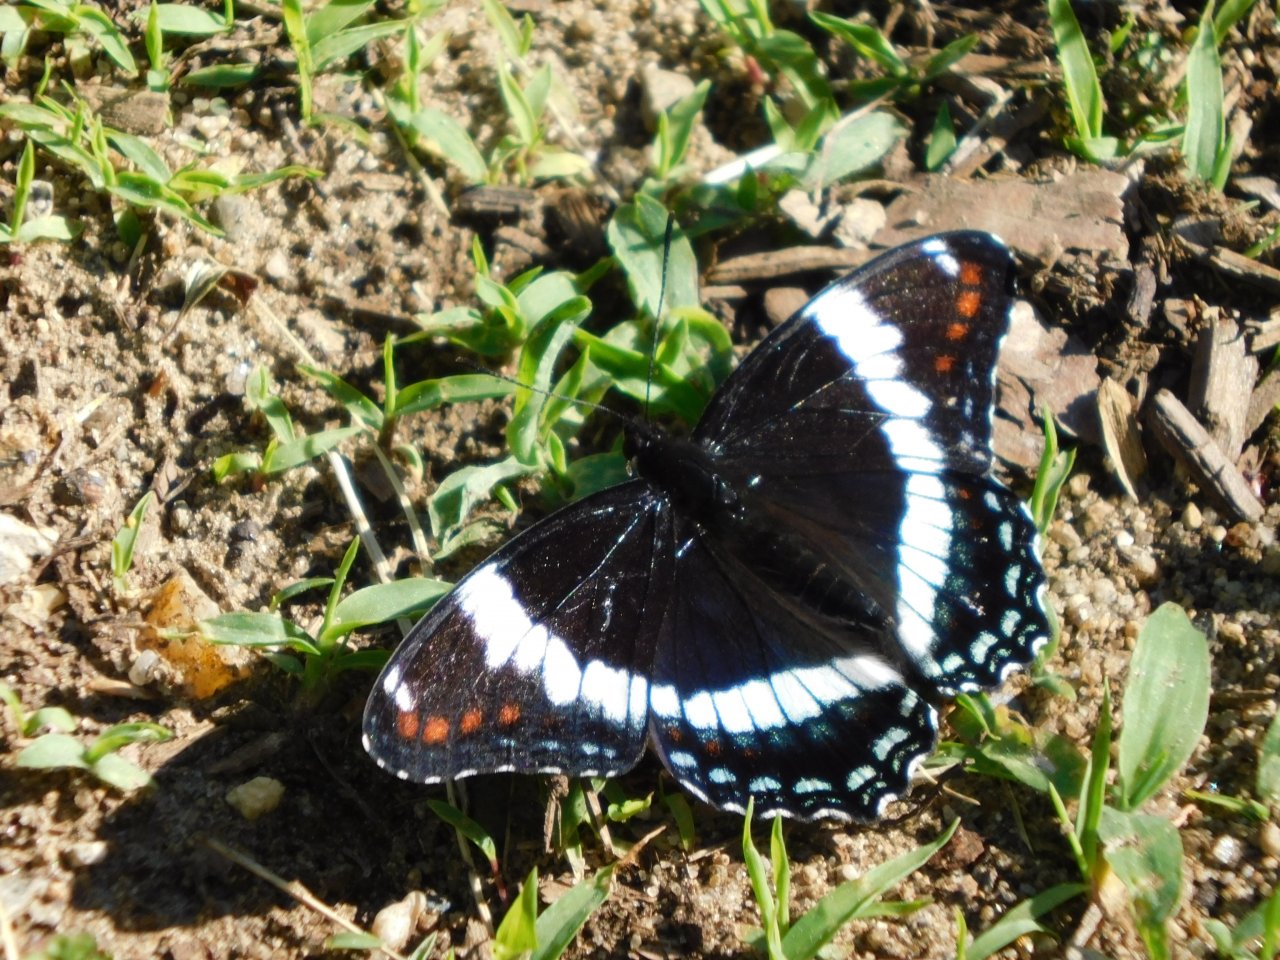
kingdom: Animalia
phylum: Arthropoda
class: Insecta
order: Lepidoptera
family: Nymphalidae
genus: Limenitis
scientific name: Limenitis arthemis
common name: Red-spotted Admiral
